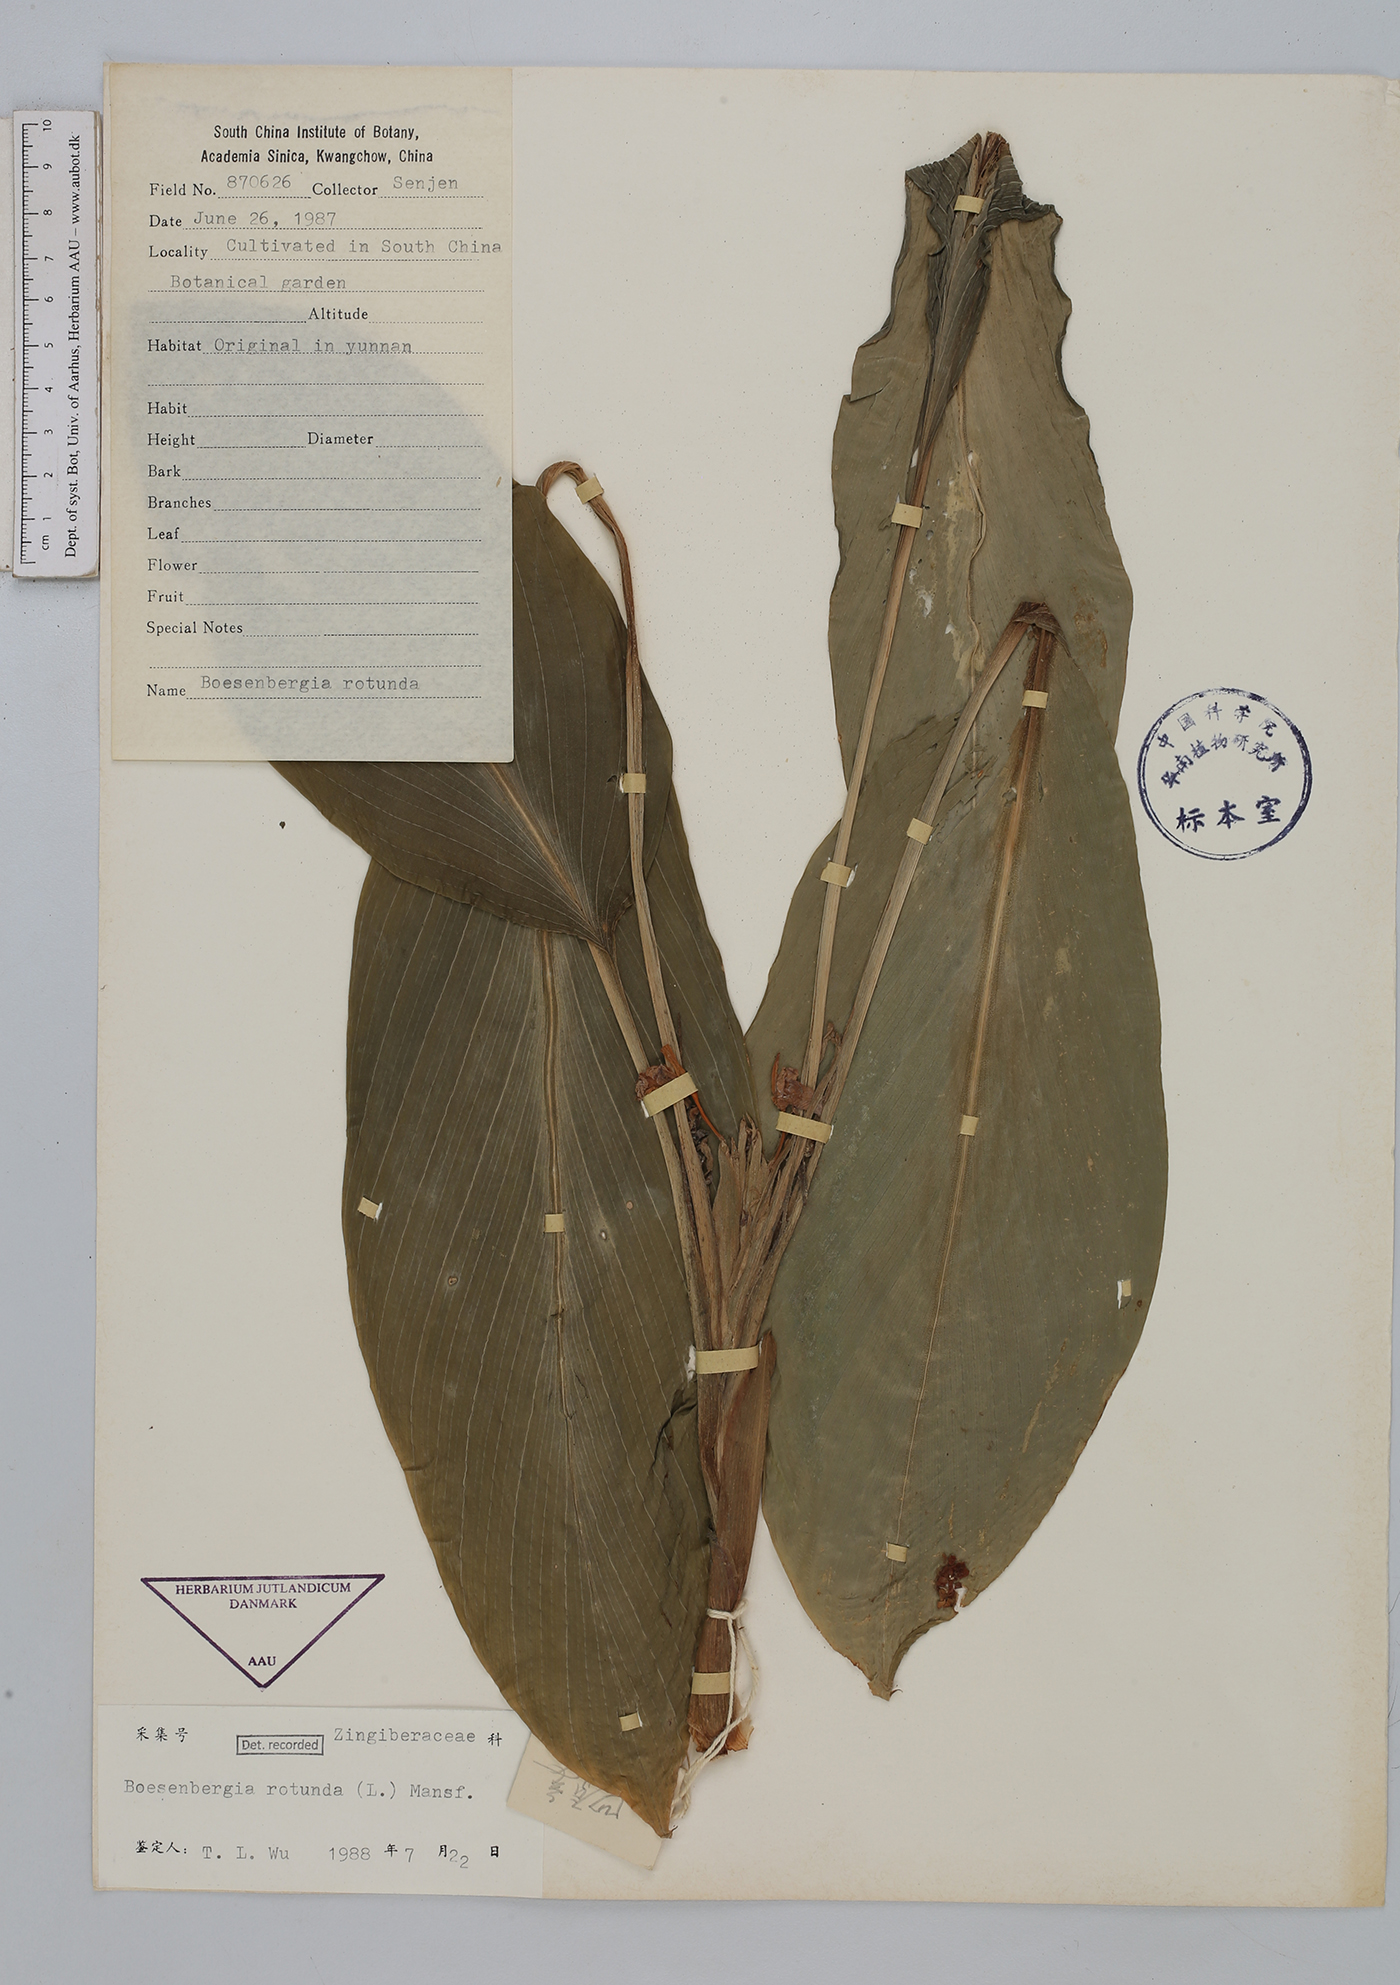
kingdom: Plantae
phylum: Tracheophyta
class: Liliopsida
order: Zingiberales
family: Zingiberaceae
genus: Boesenbergia
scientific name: Boesenbergia rotunda
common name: Chinese ginger
